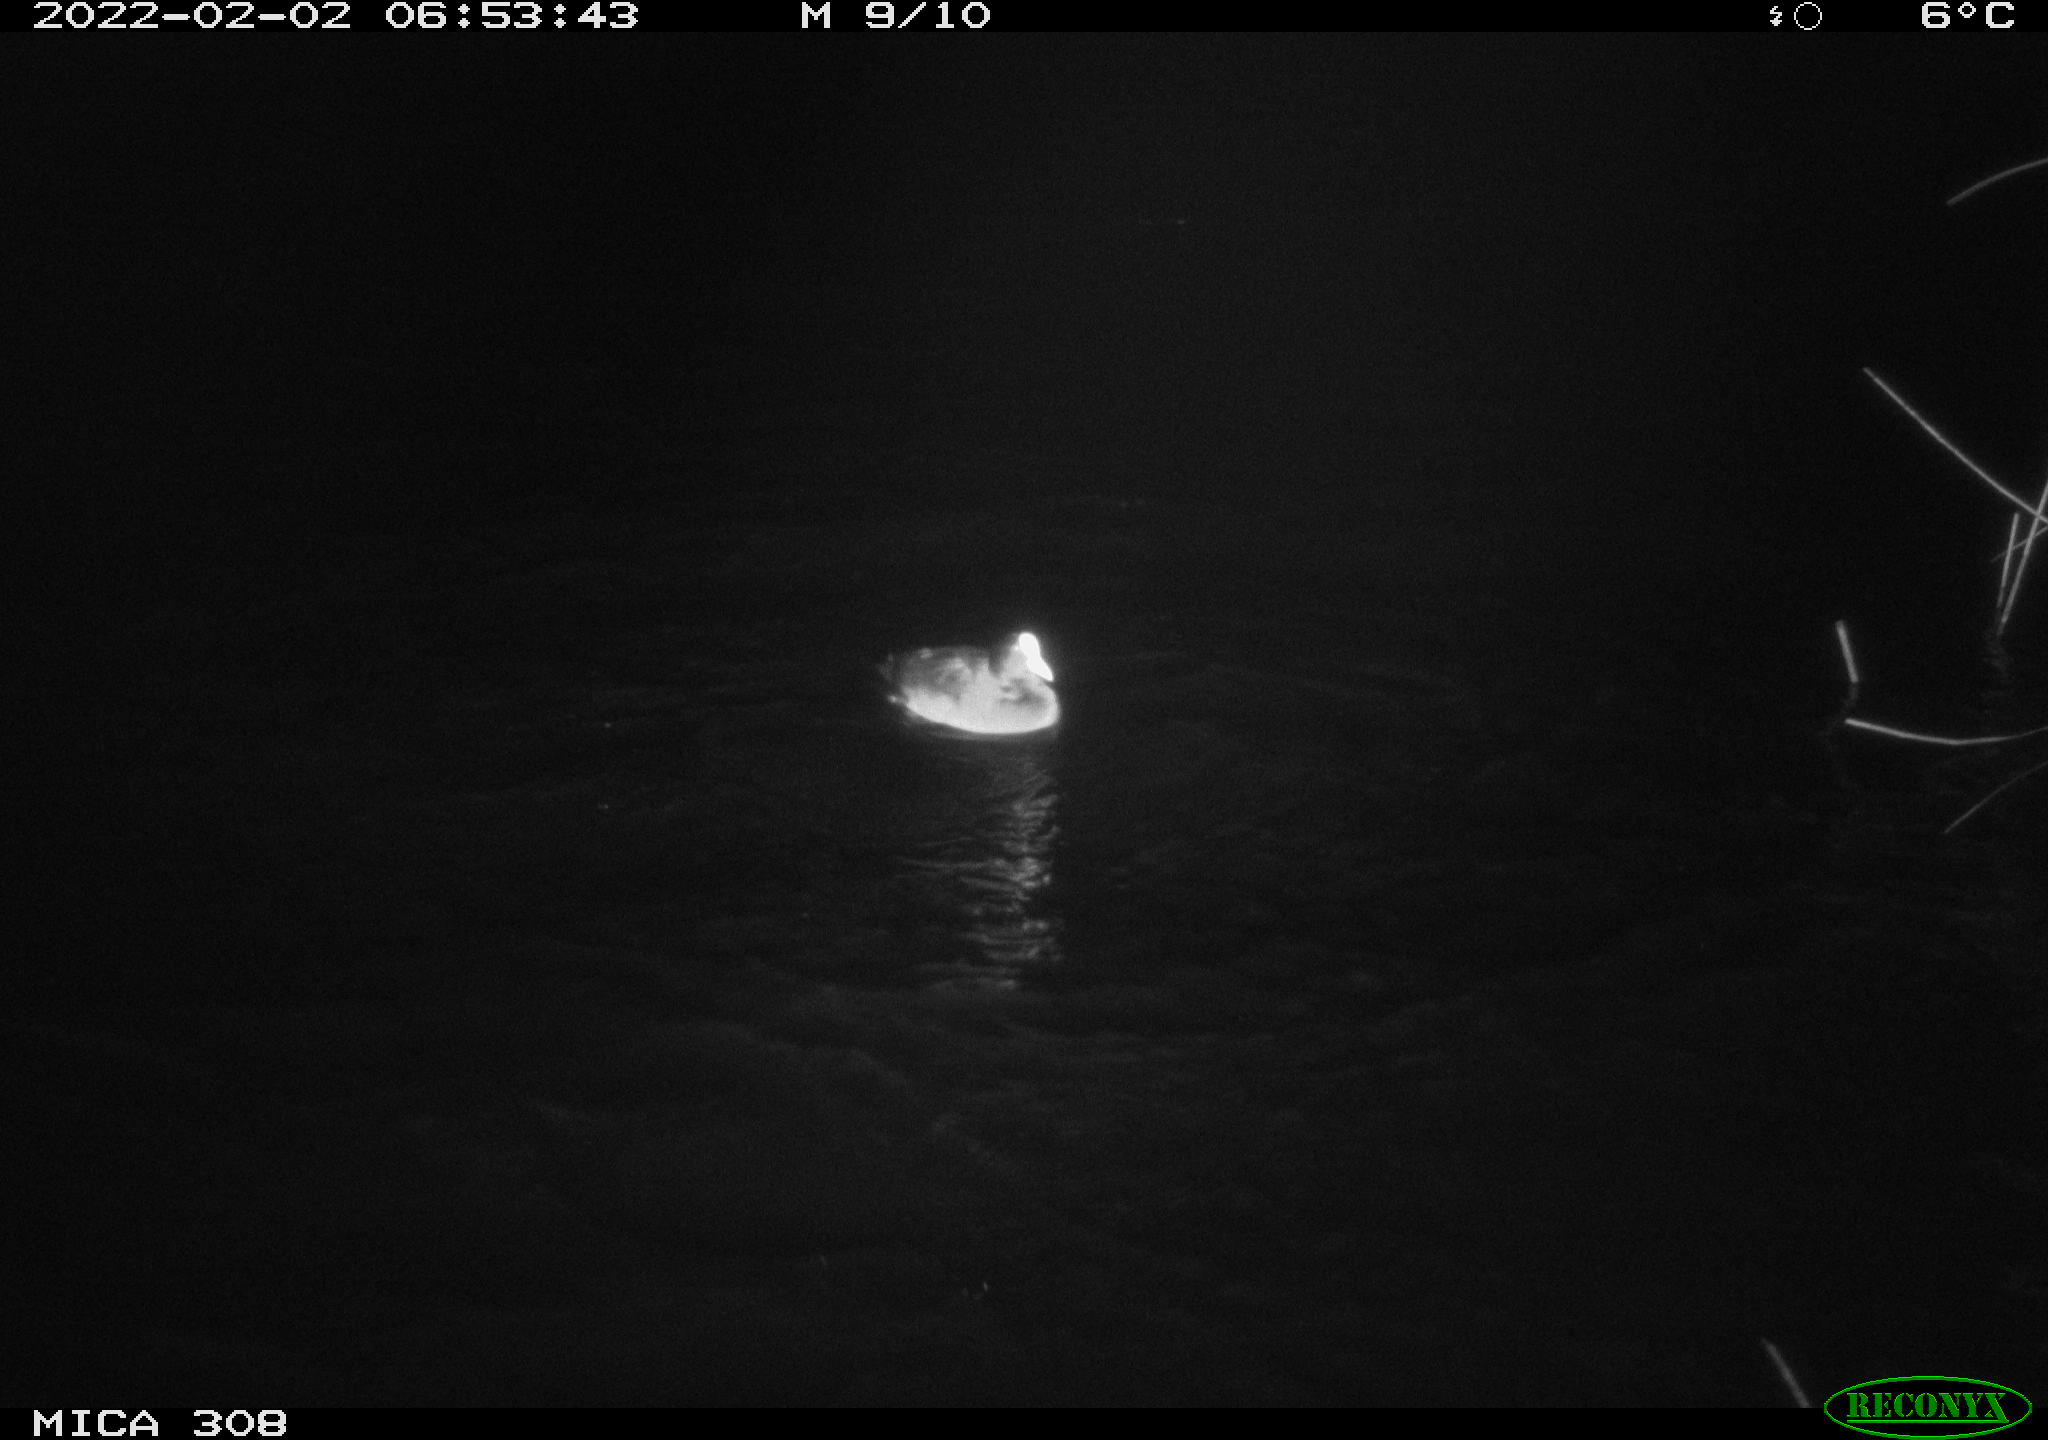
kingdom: Animalia
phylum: Chordata
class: Aves
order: Anseriformes
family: Anatidae
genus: Anas
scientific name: Anas
